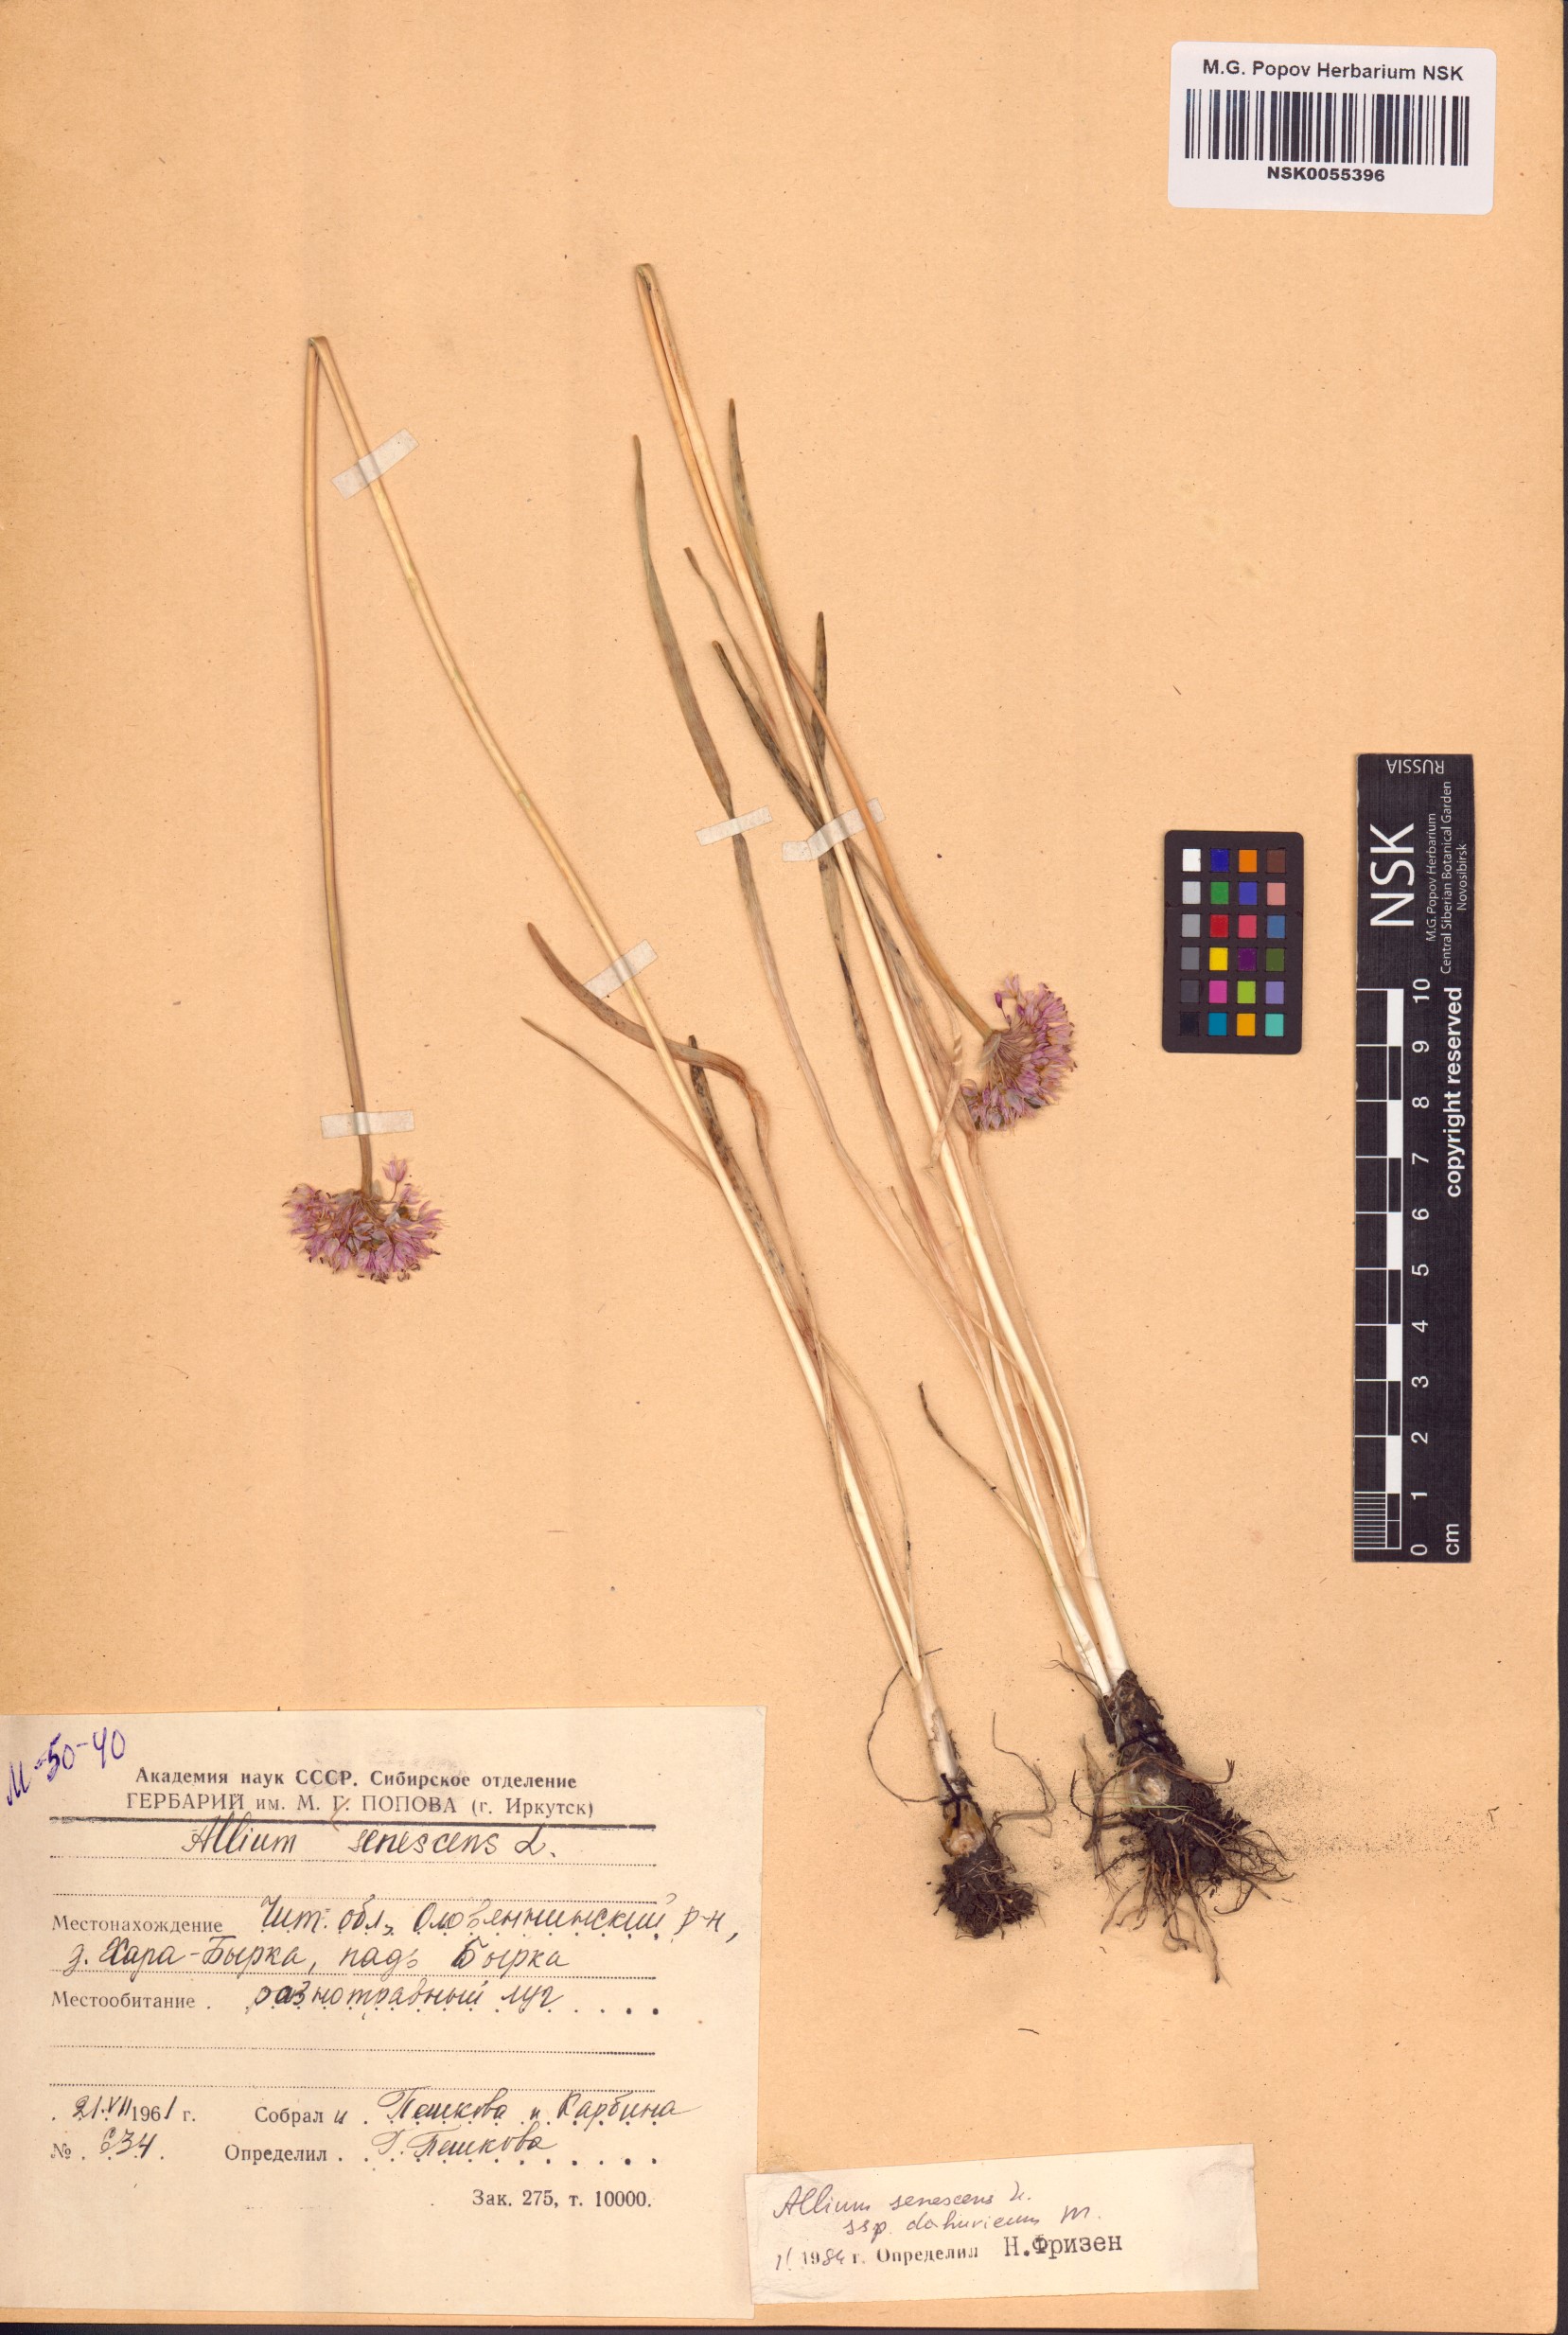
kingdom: Plantae
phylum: Tracheophyta
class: Liliopsida
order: Asparagales
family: Amaryllidaceae
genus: Allium
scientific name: Allium senescens
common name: German garlic
